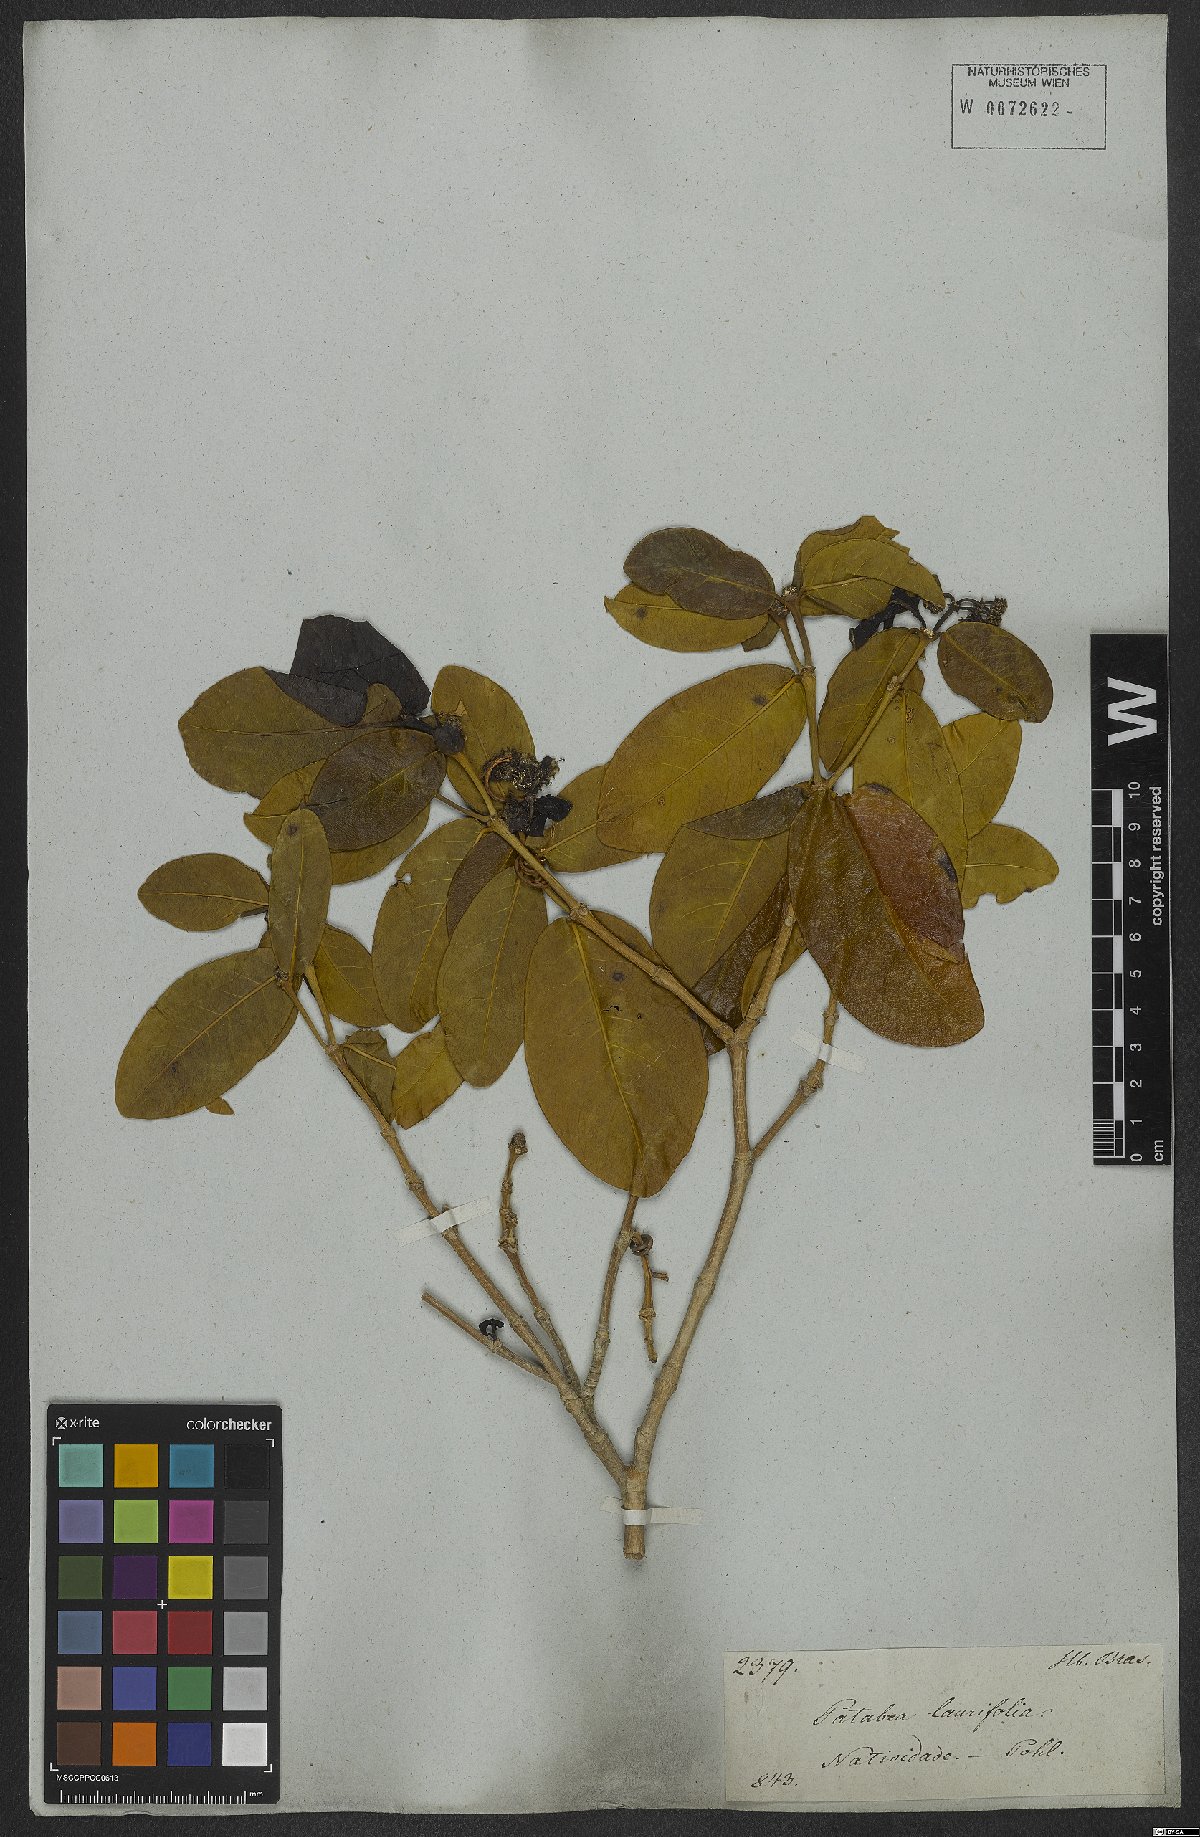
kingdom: Plantae
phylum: Tracheophyta
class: Magnoliopsida
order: Gentianales
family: Rubiaceae
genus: Rudgea
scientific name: Rudgea erioloba
